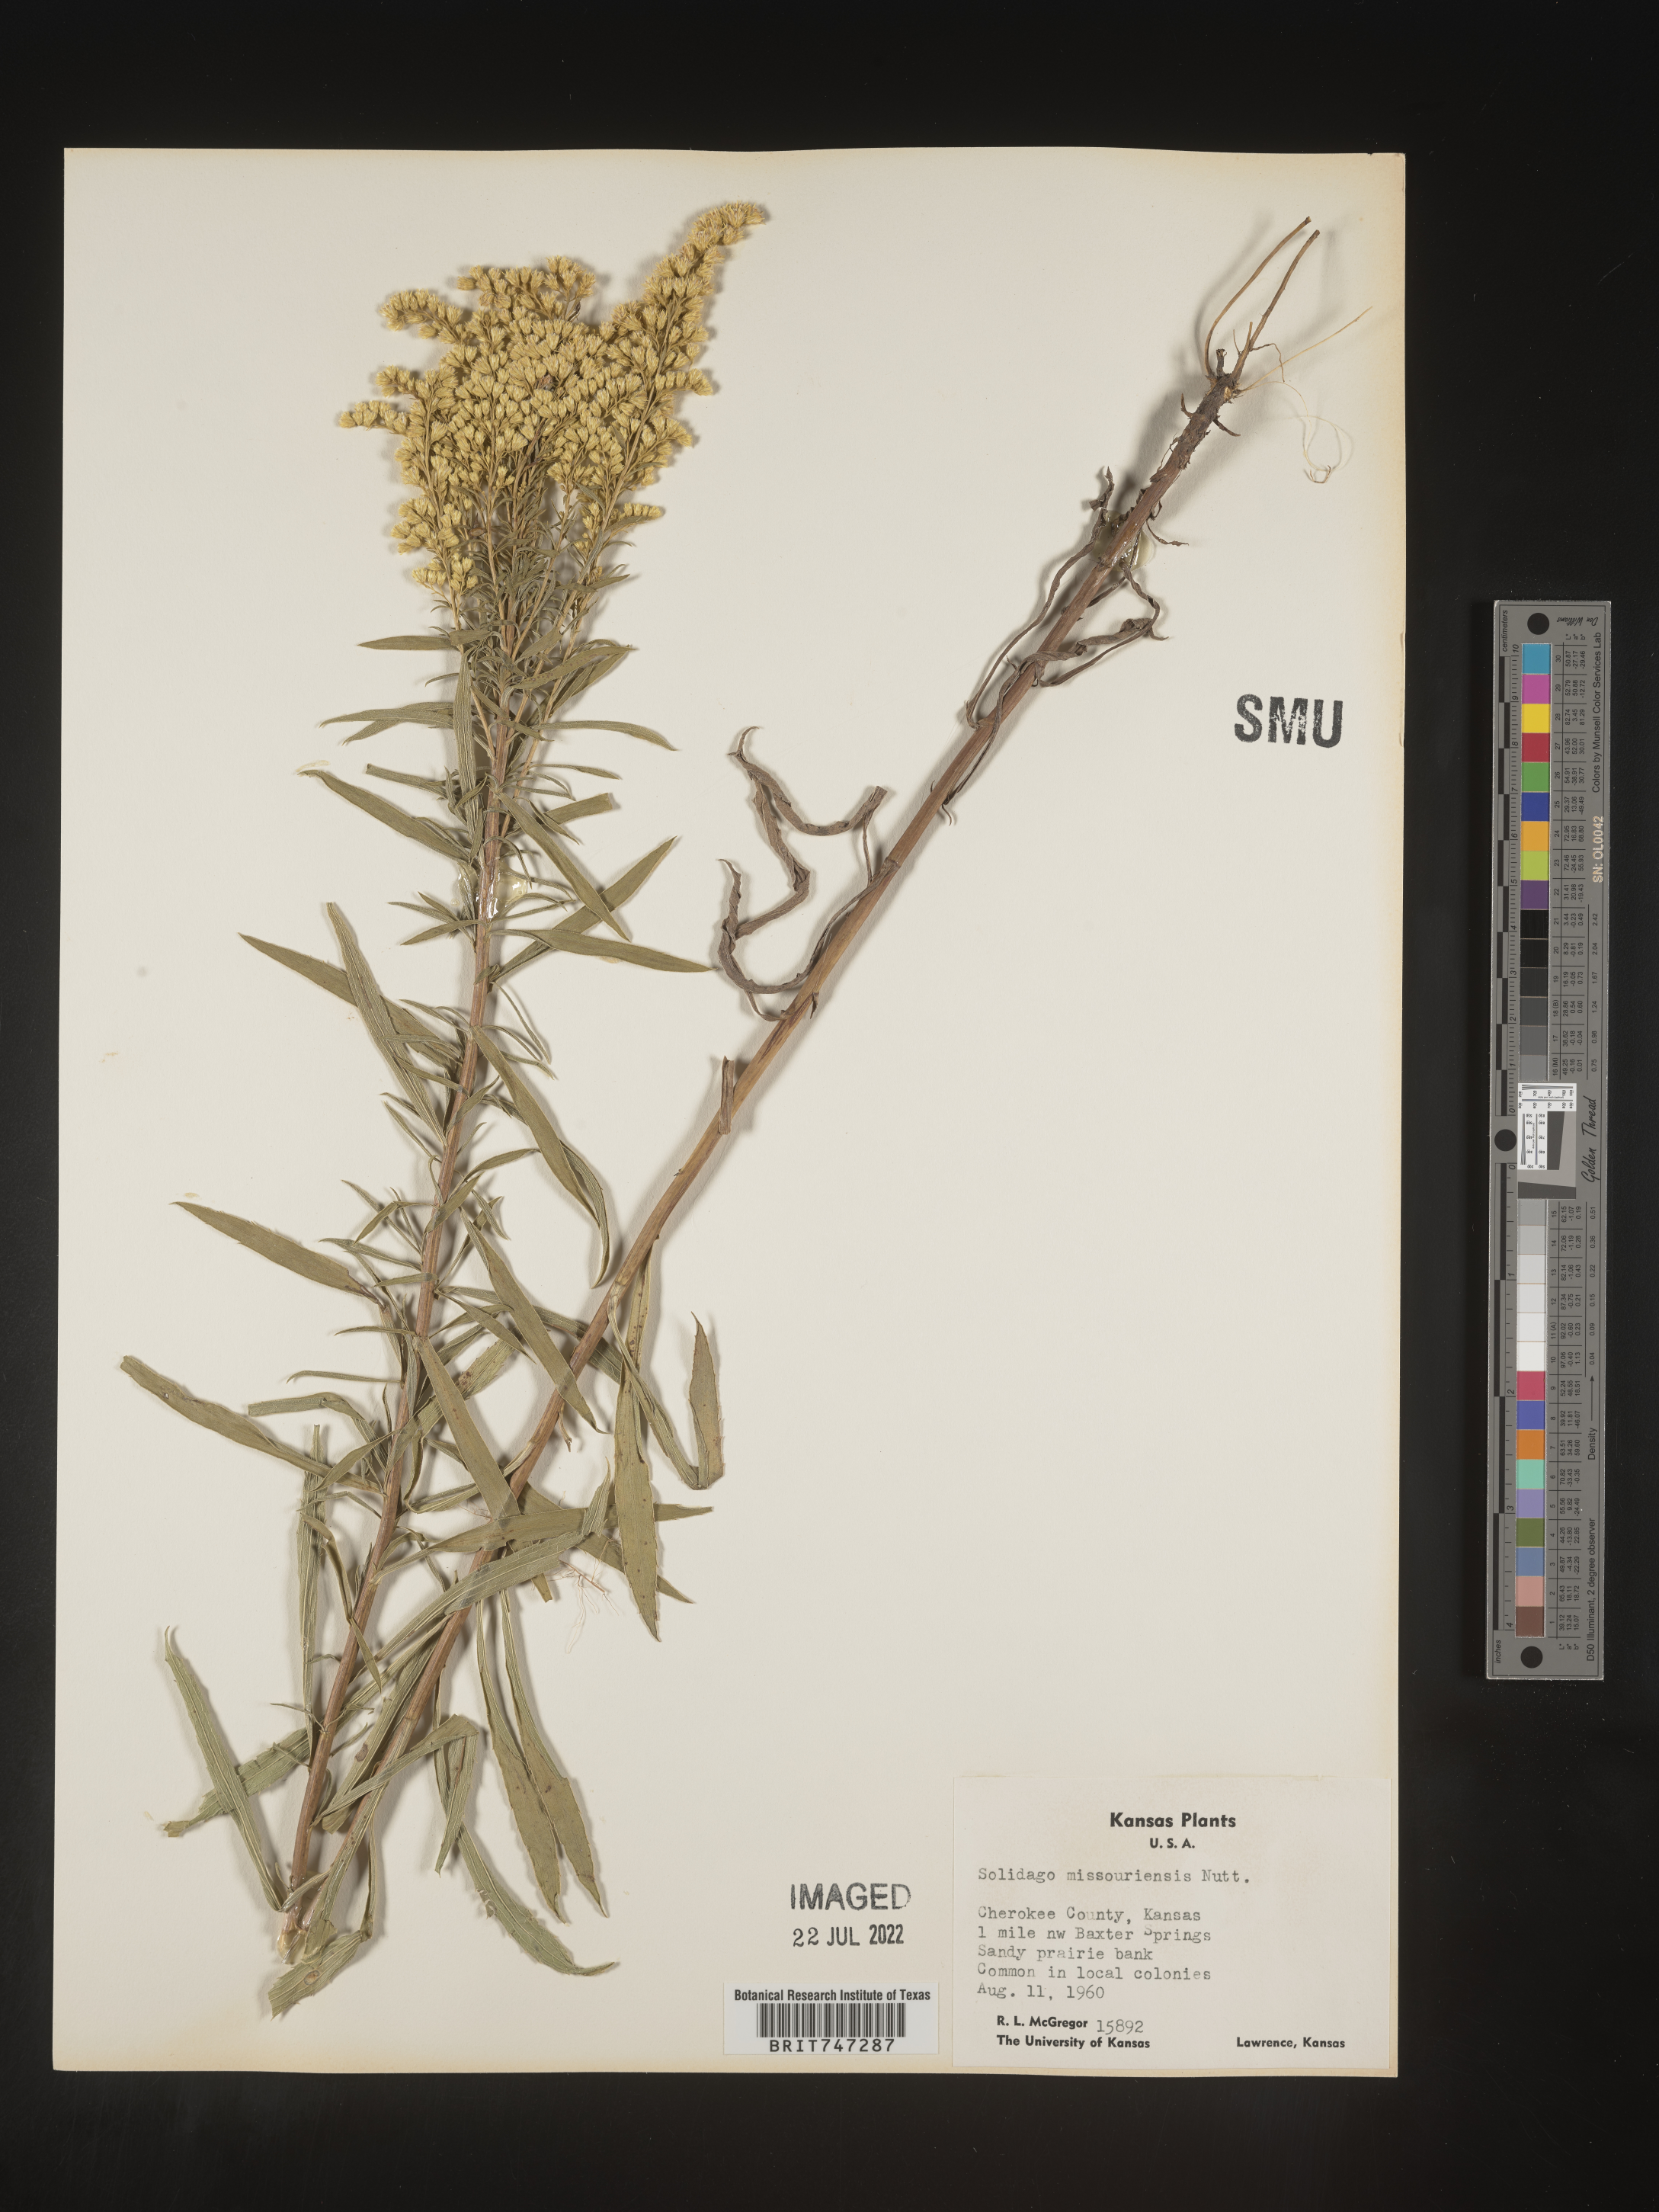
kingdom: Plantae
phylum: Tracheophyta
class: Magnoliopsida
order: Asterales
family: Asteraceae
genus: Solidago
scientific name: Solidago missouriensis
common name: Prairie goldenrod
